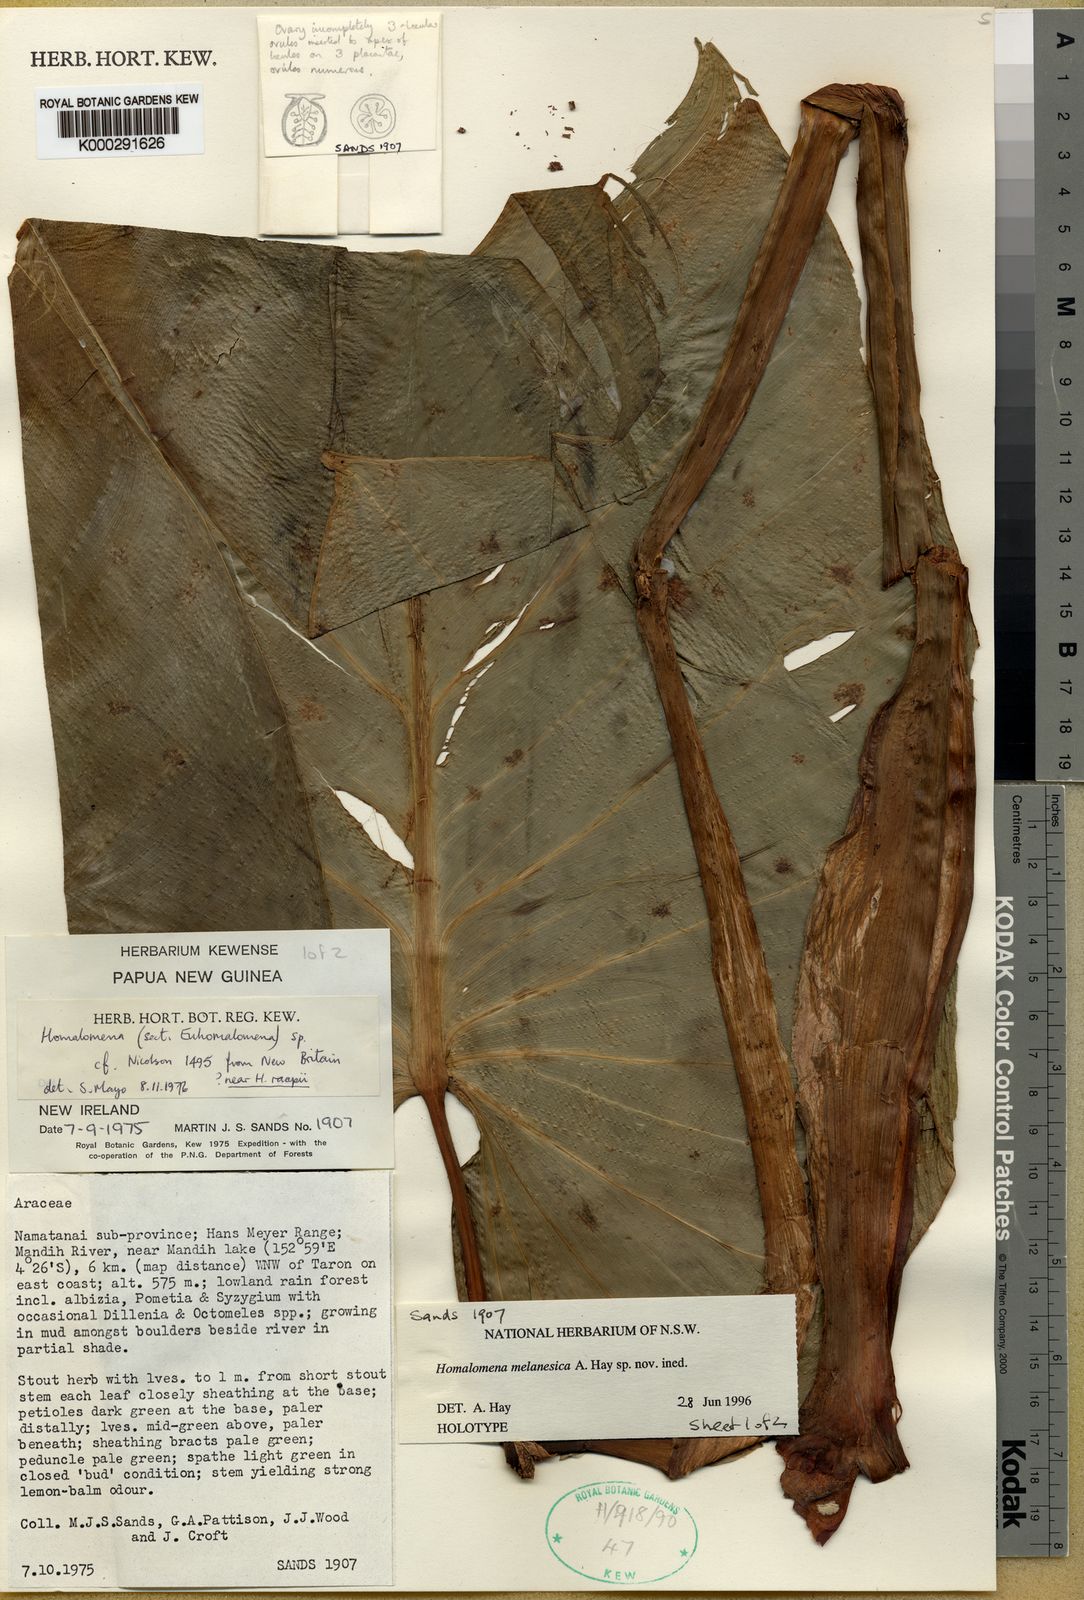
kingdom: Plantae
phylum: Tracheophyta
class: Liliopsida
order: Alismatales
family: Araceae
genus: Homalomena
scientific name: Homalomena melanesica
